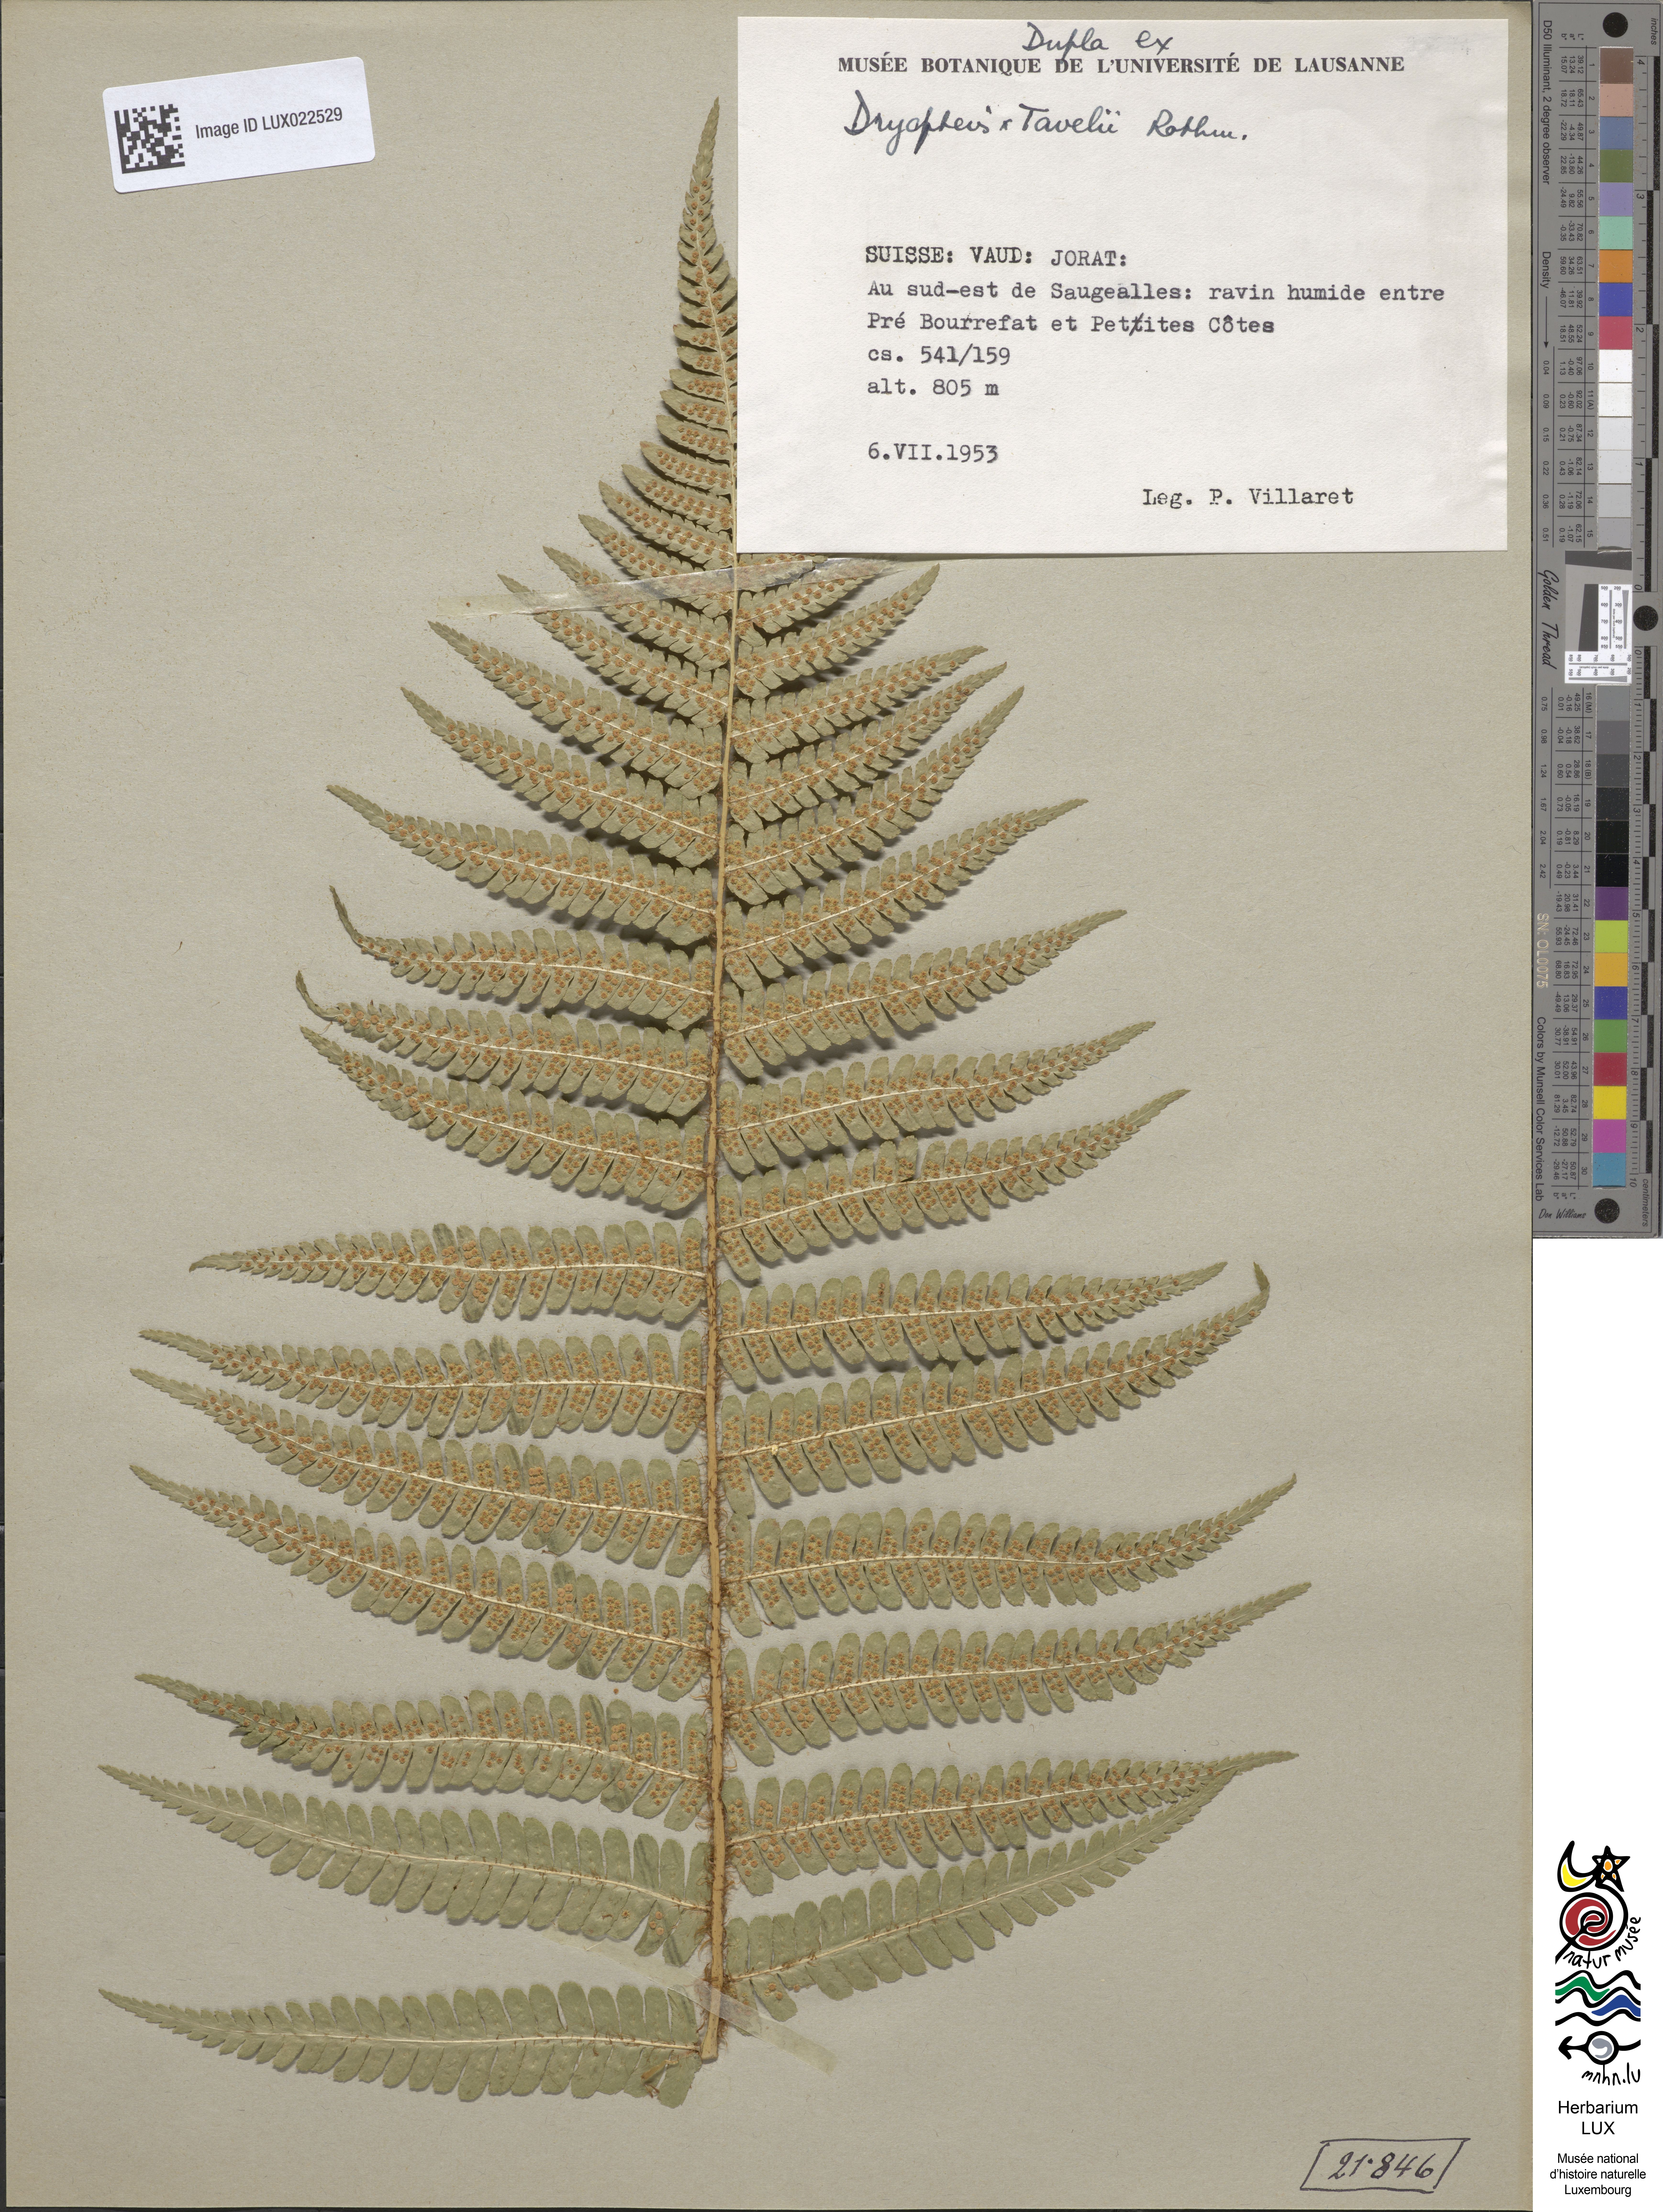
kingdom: Plantae
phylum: Tracheophyta
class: Polypodiopsida
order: Polypodiales
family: Dryopteridaceae
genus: Dryopteris
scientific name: Dryopteris borreri
